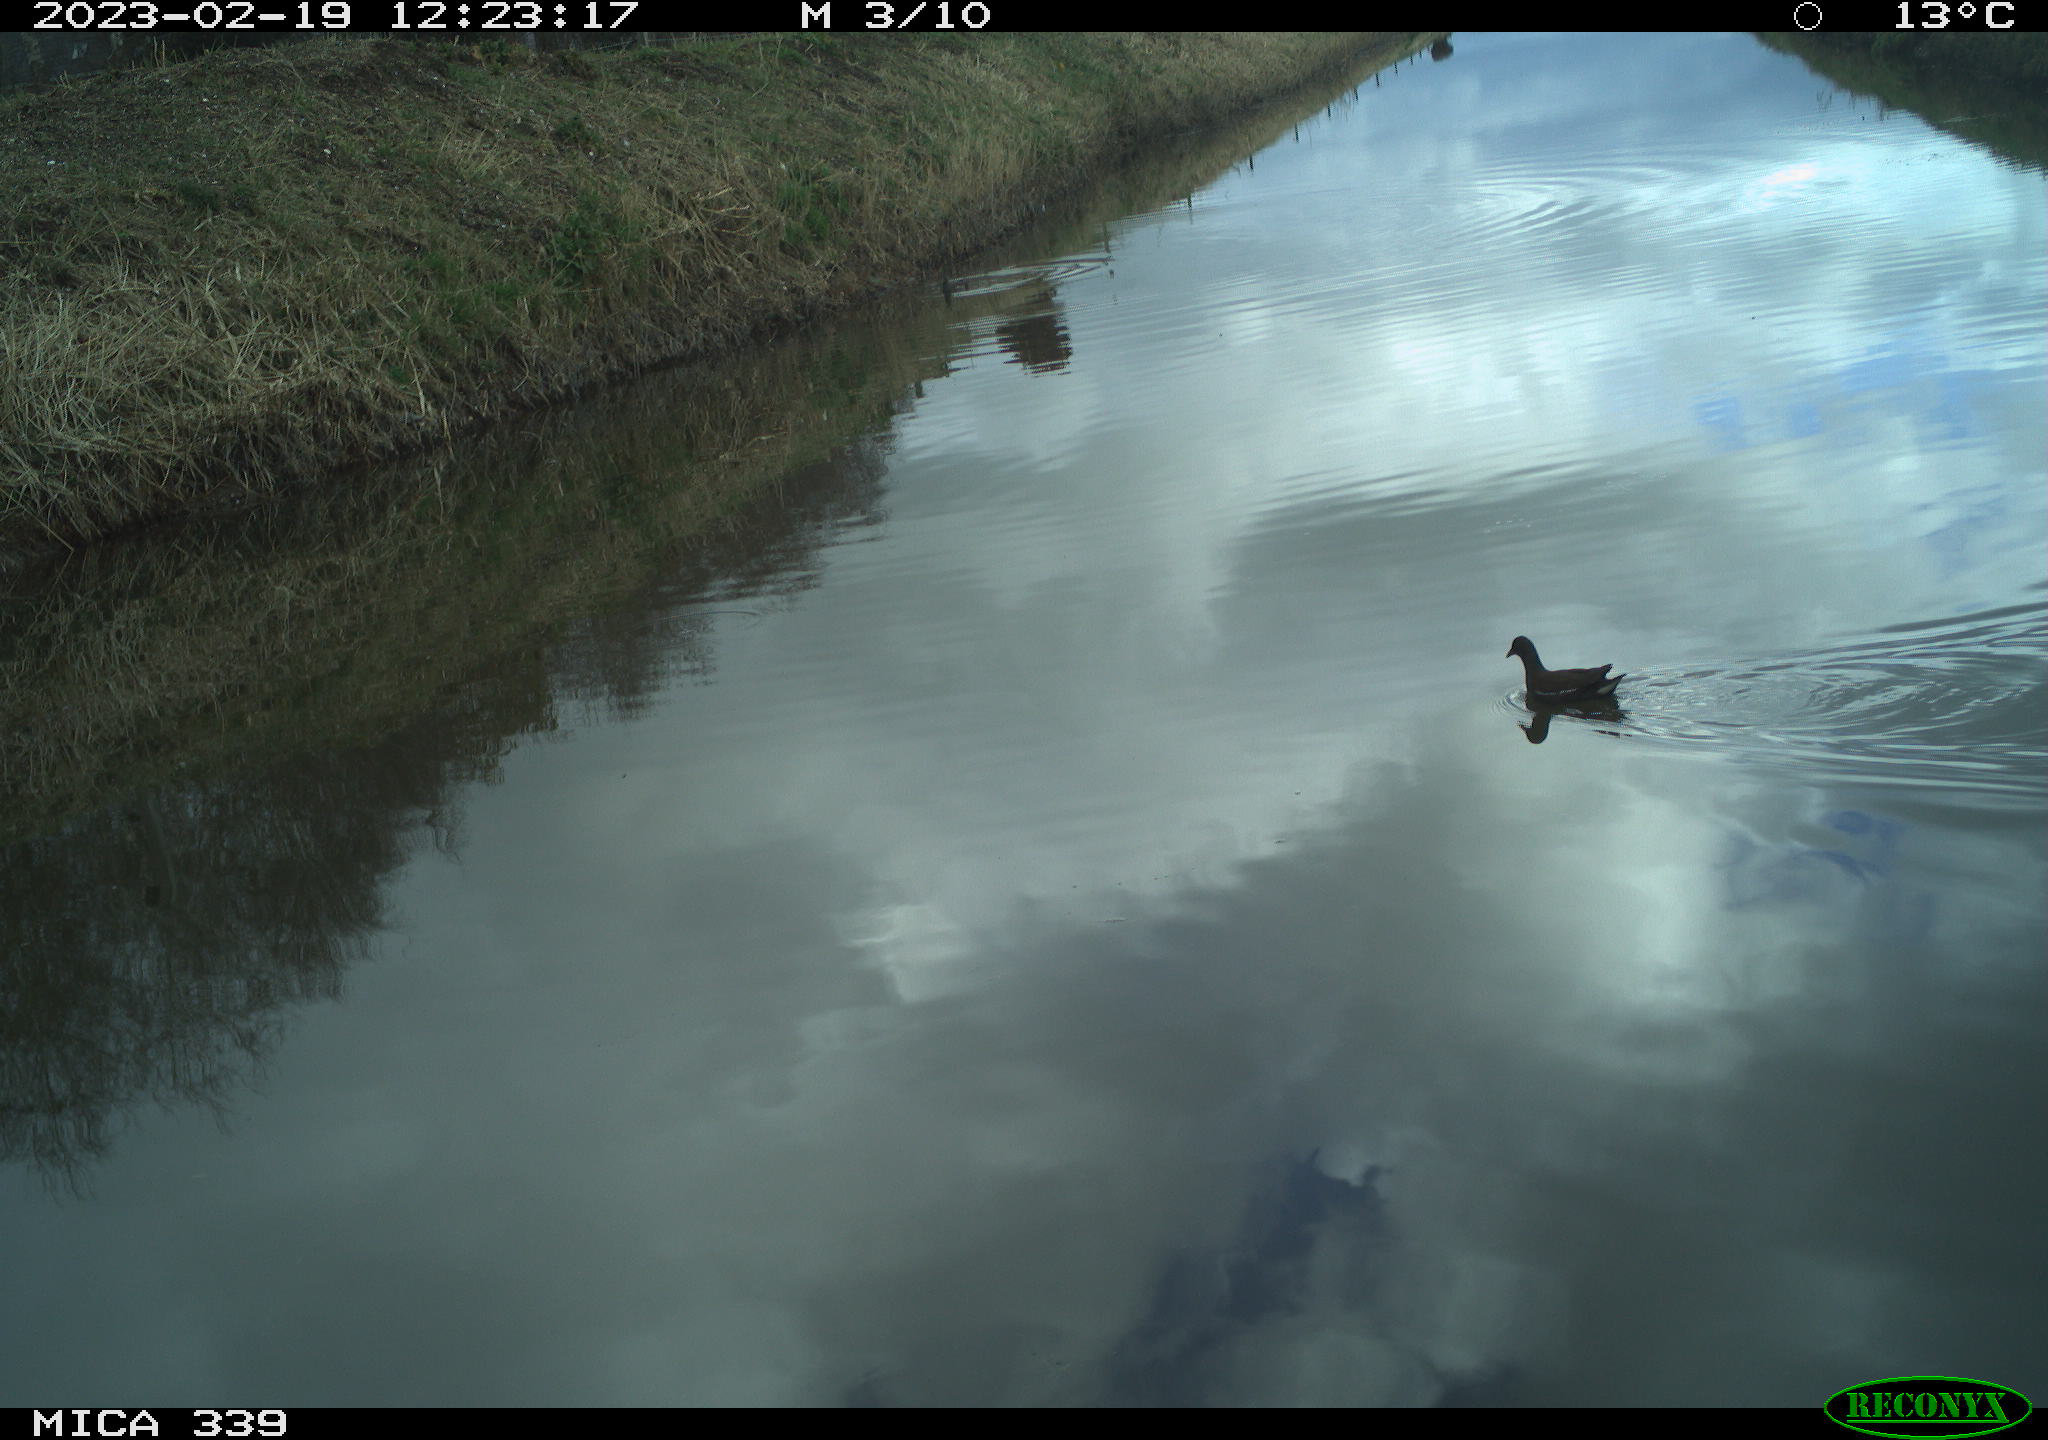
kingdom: Animalia
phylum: Chordata
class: Aves
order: Gruiformes
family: Rallidae
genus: Gallinula
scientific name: Gallinula chloropus
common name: Common moorhen
